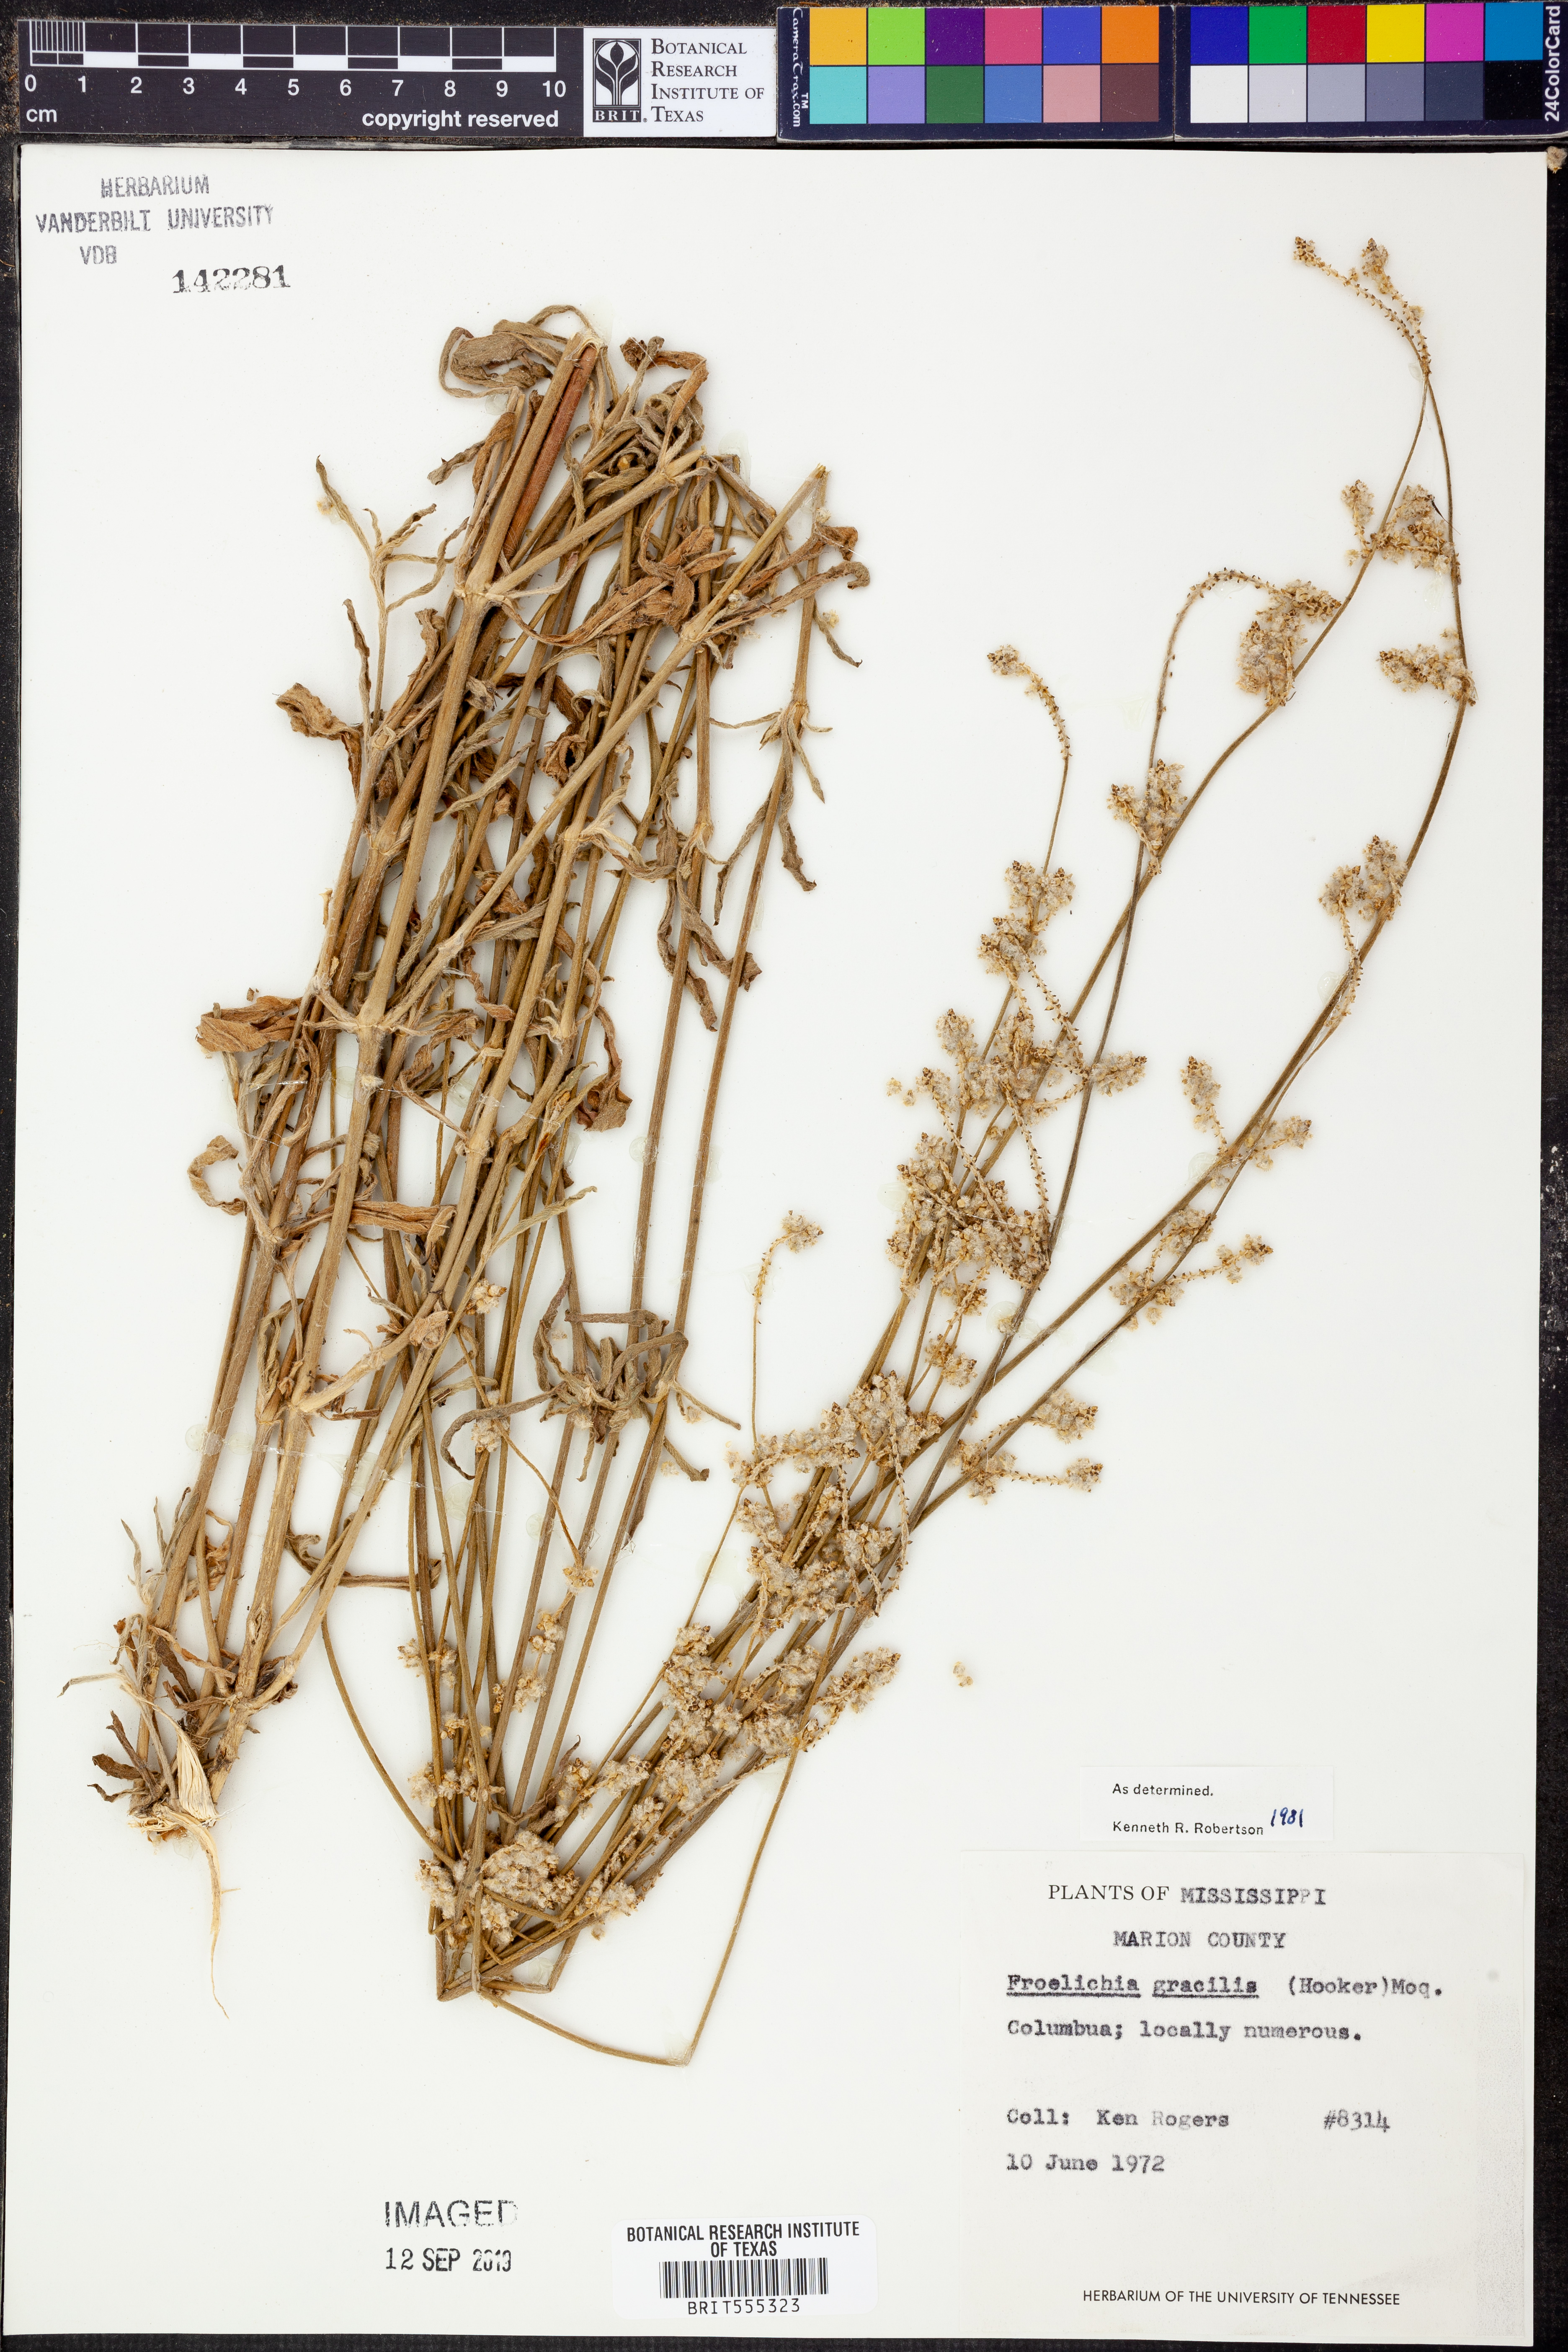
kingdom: Plantae
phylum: Tracheophyta
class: Magnoliopsida
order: Caryophyllales
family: Amaranthaceae
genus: Froelichia
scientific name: Froelichia gracilis
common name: Slender cottonweed
